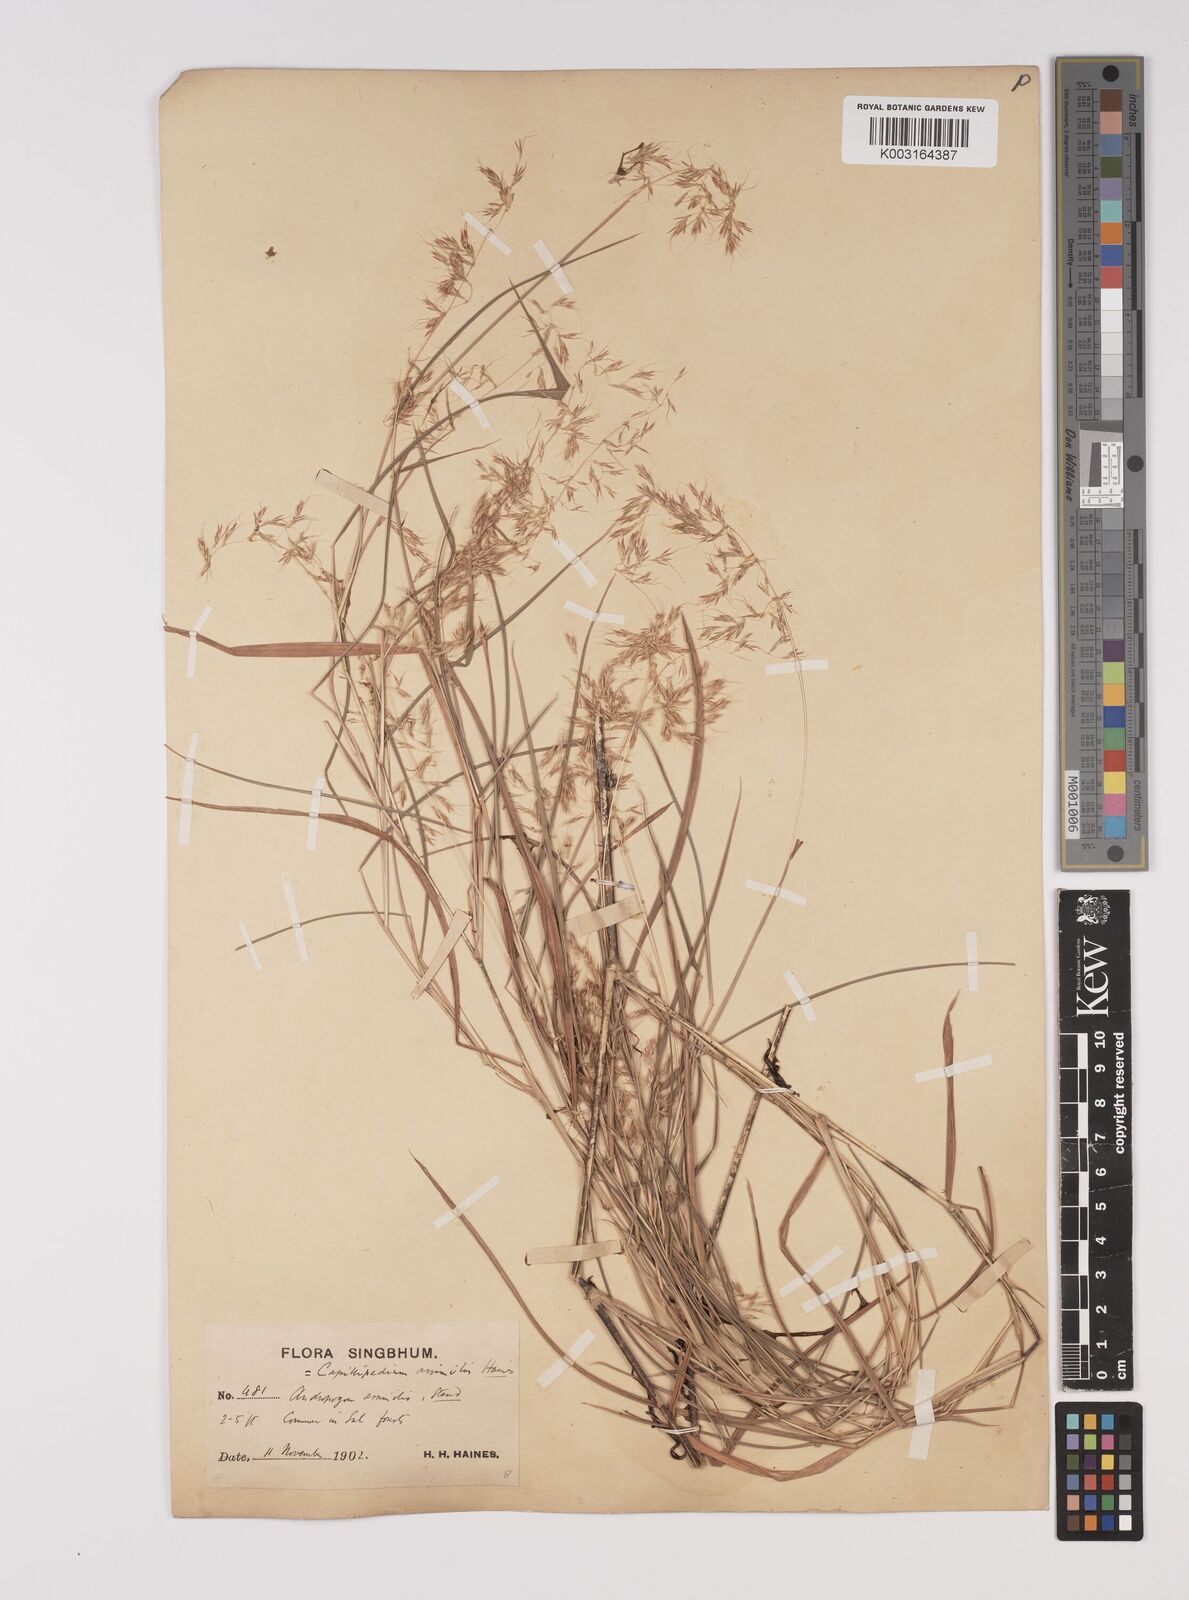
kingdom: Plantae
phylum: Tracheophyta
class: Liliopsida
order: Poales
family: Poaceae
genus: Capillipedium
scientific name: Capillipedium assimile
